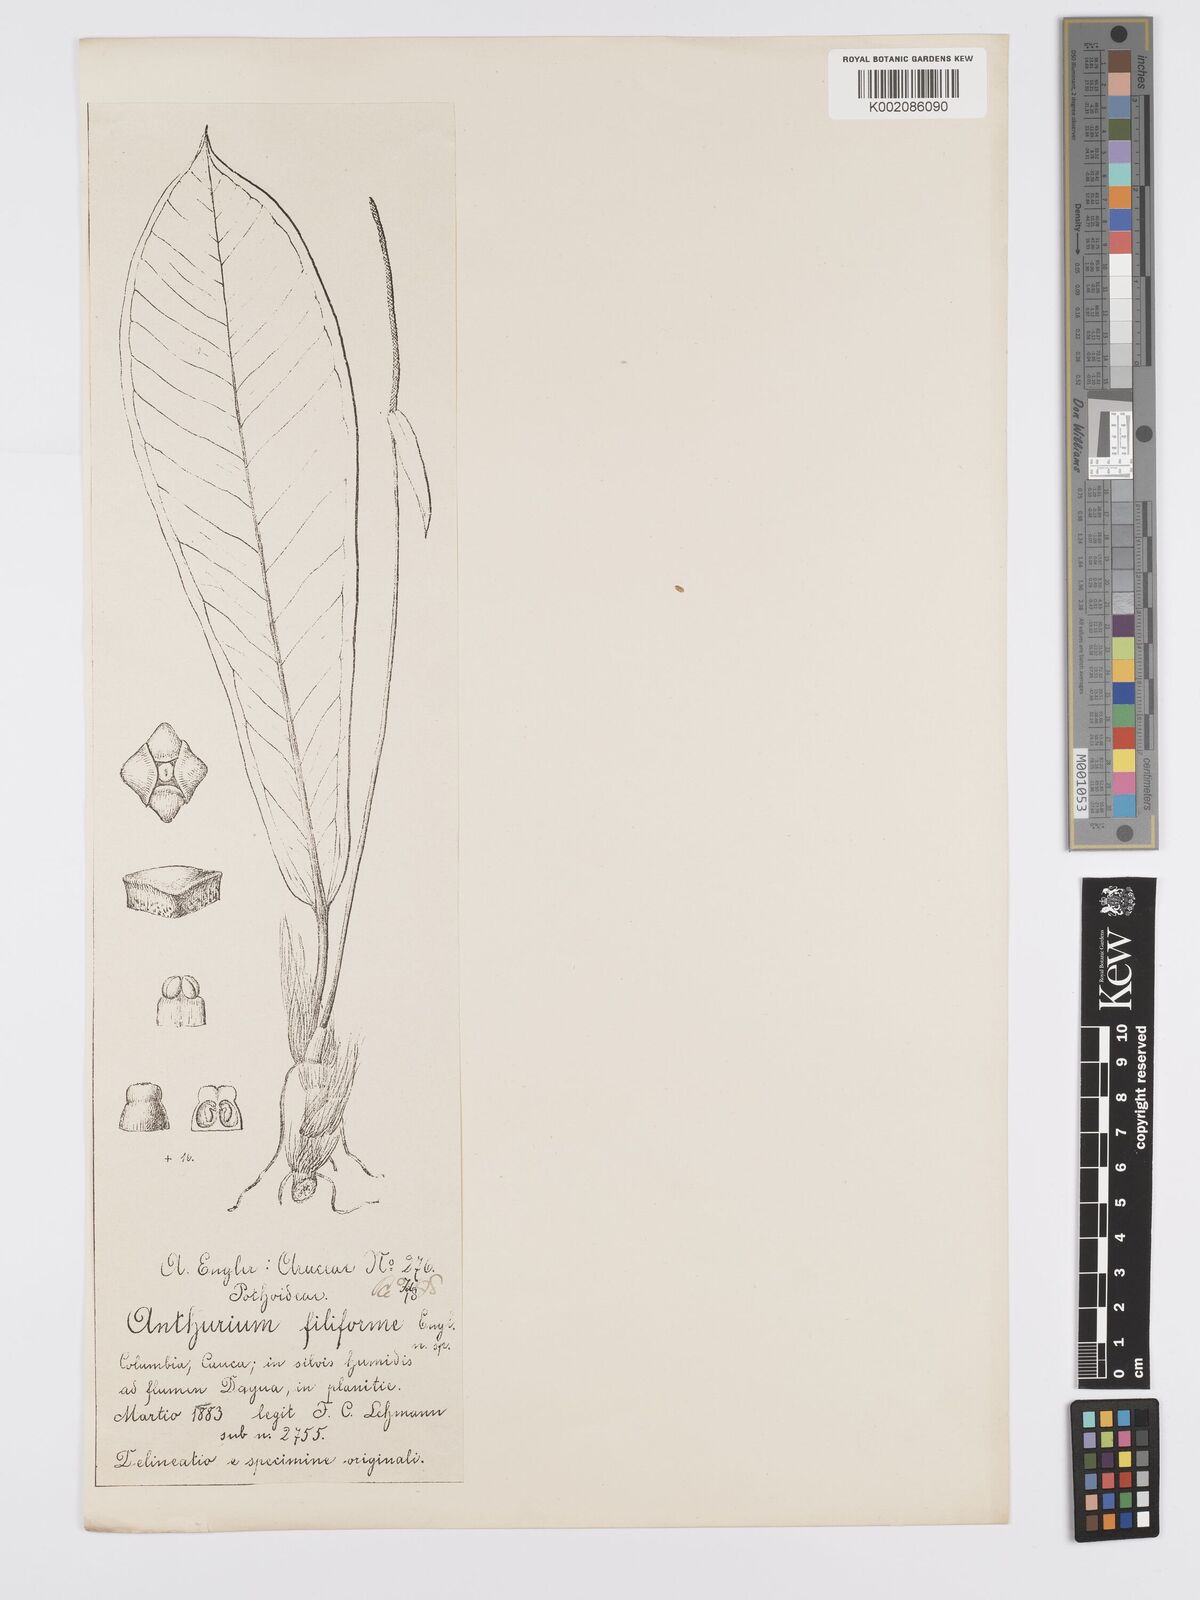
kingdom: Plantae
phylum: Tracheophyta
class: Liliopsida
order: Alismatales
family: Araceae
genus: Anthurium
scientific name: Anthurium filiforme
